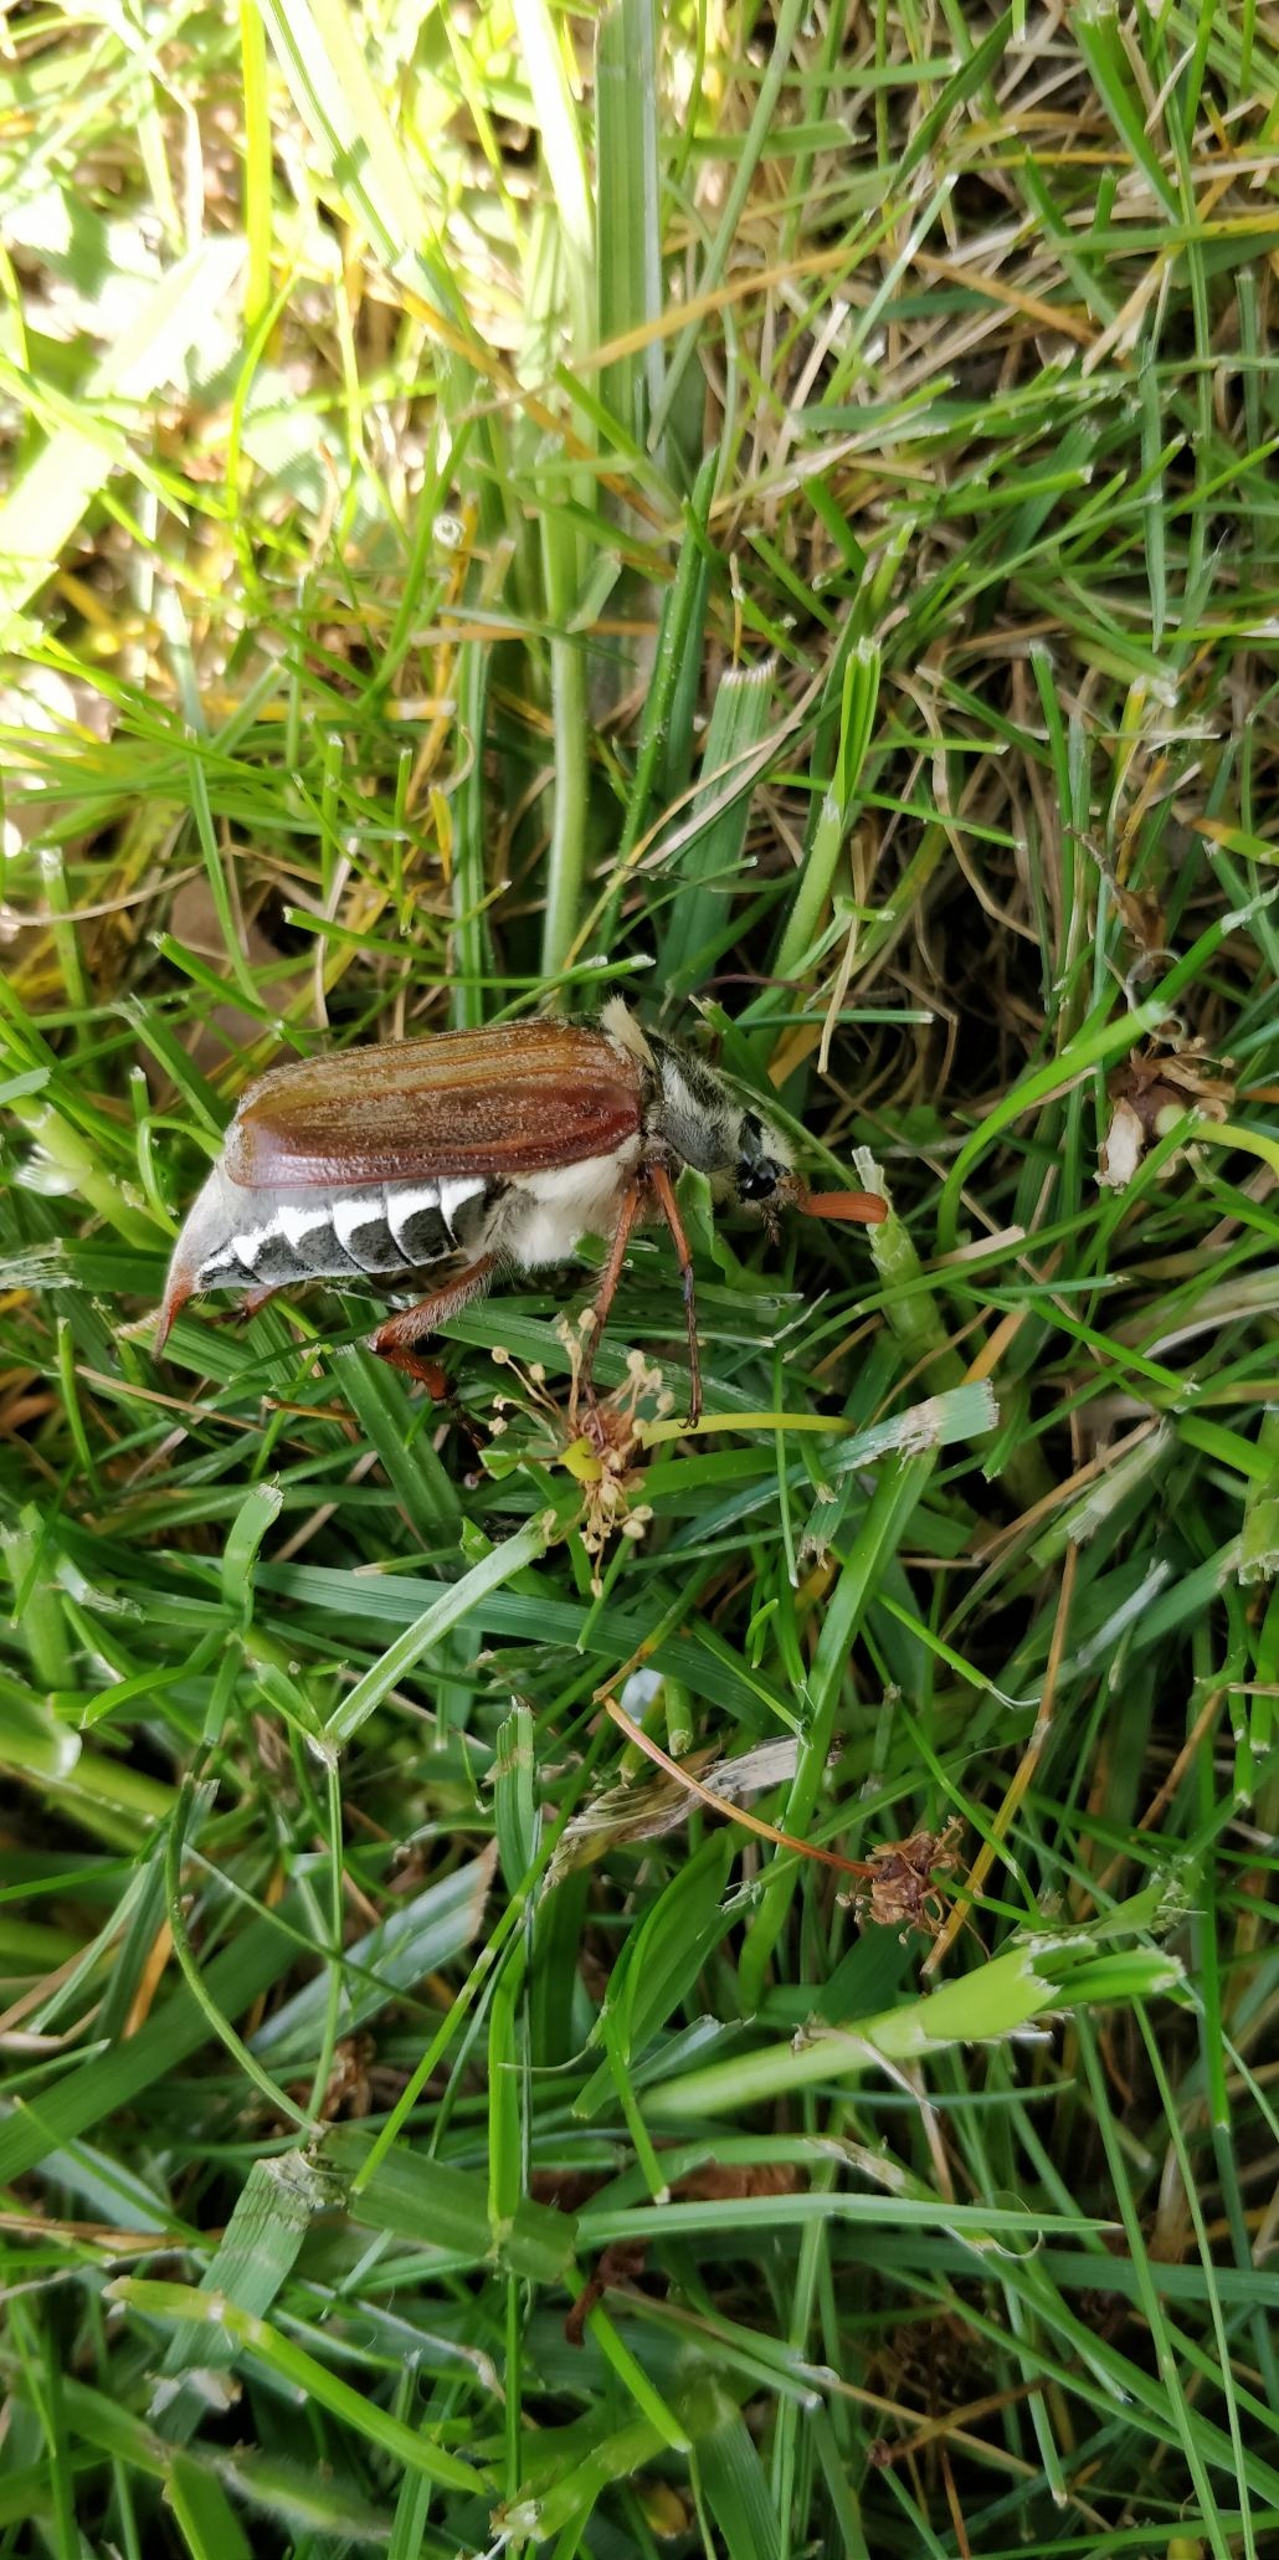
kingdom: Animalia
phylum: Arthropoda
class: Insecta
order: Coleoptera
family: Scarabaeidae
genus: Melolontha
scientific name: Melolontha melolontha
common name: Almindelig oldenborre
